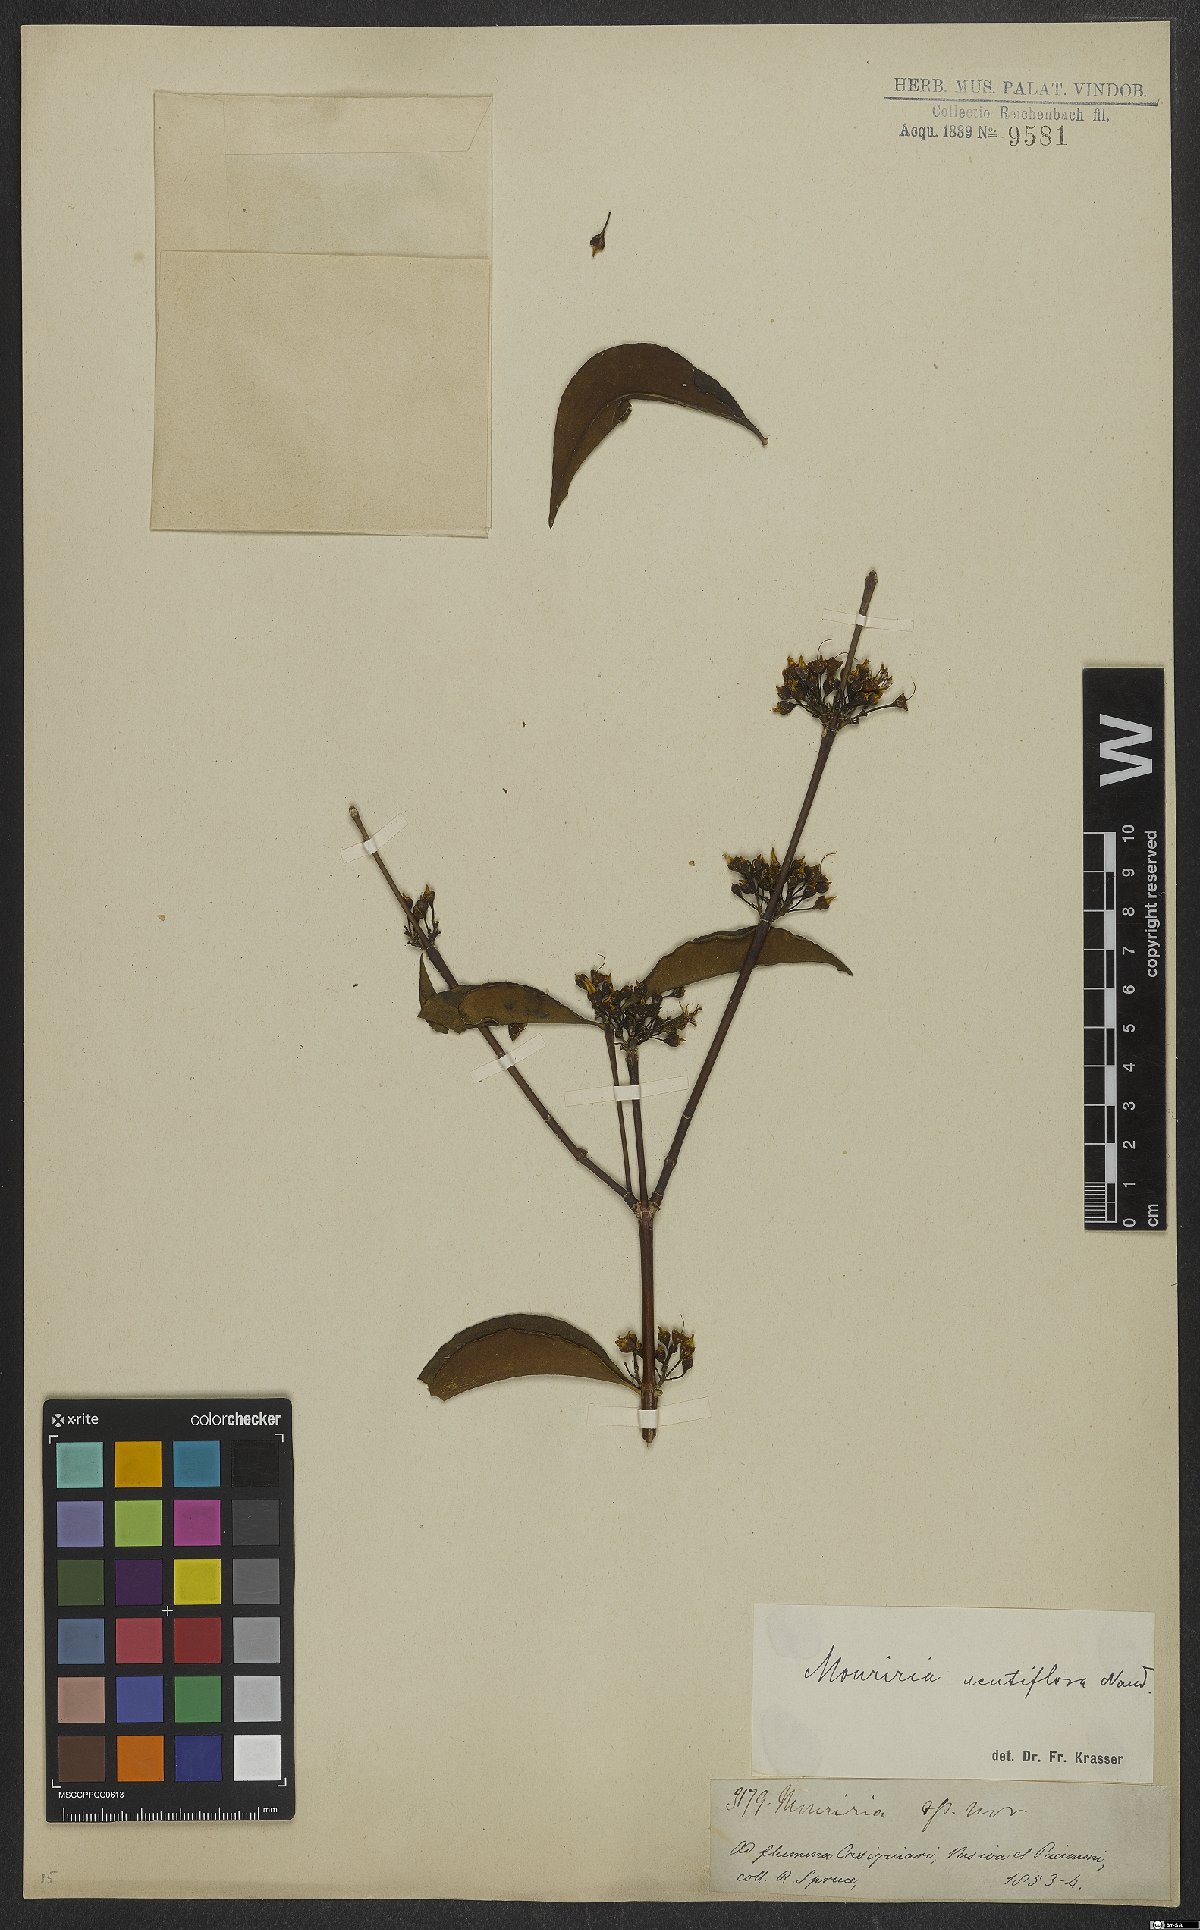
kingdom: Plantae
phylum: Tracheophyta
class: Magnoliopsida
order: Myrtales
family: Melastomataceae
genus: Mouriri
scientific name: Mouriri acutiflora
